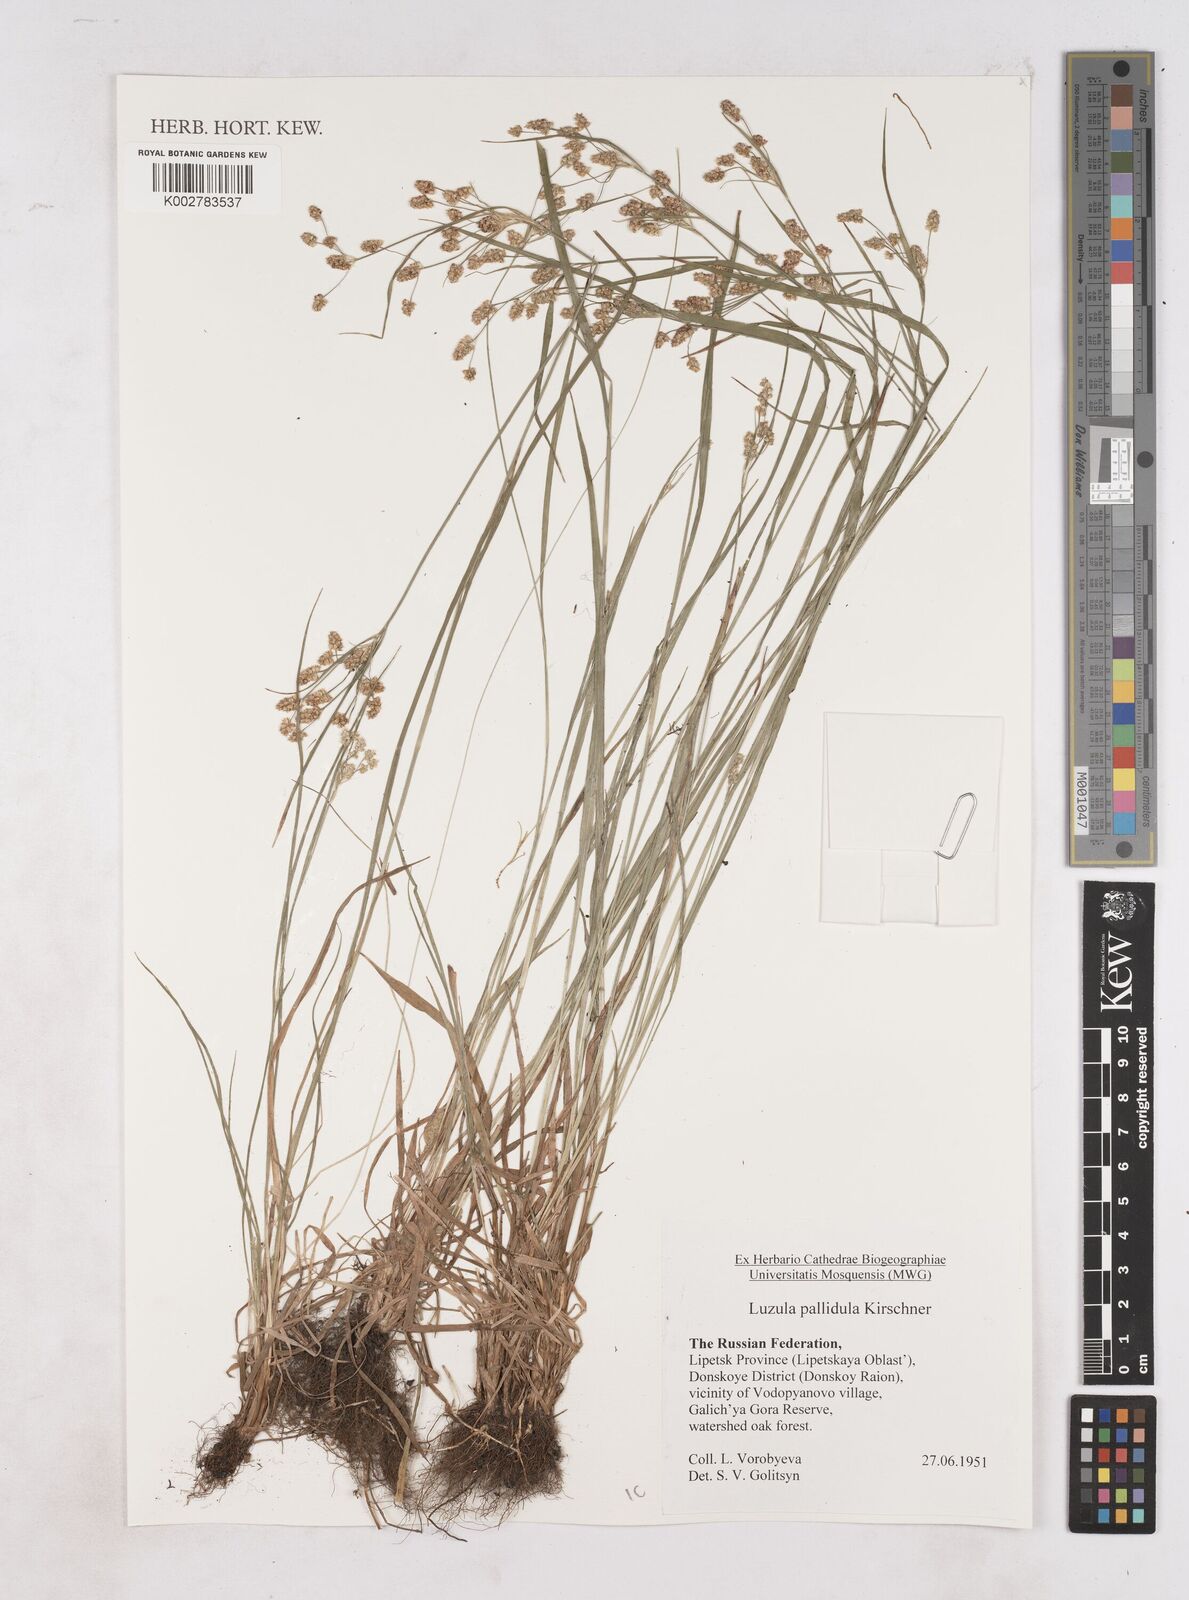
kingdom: Plantae
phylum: Tracheophyta
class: Liliopsida
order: Poales
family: Juncaceae
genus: Luzula
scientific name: Luzula pallescens
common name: Fen wood-rush
